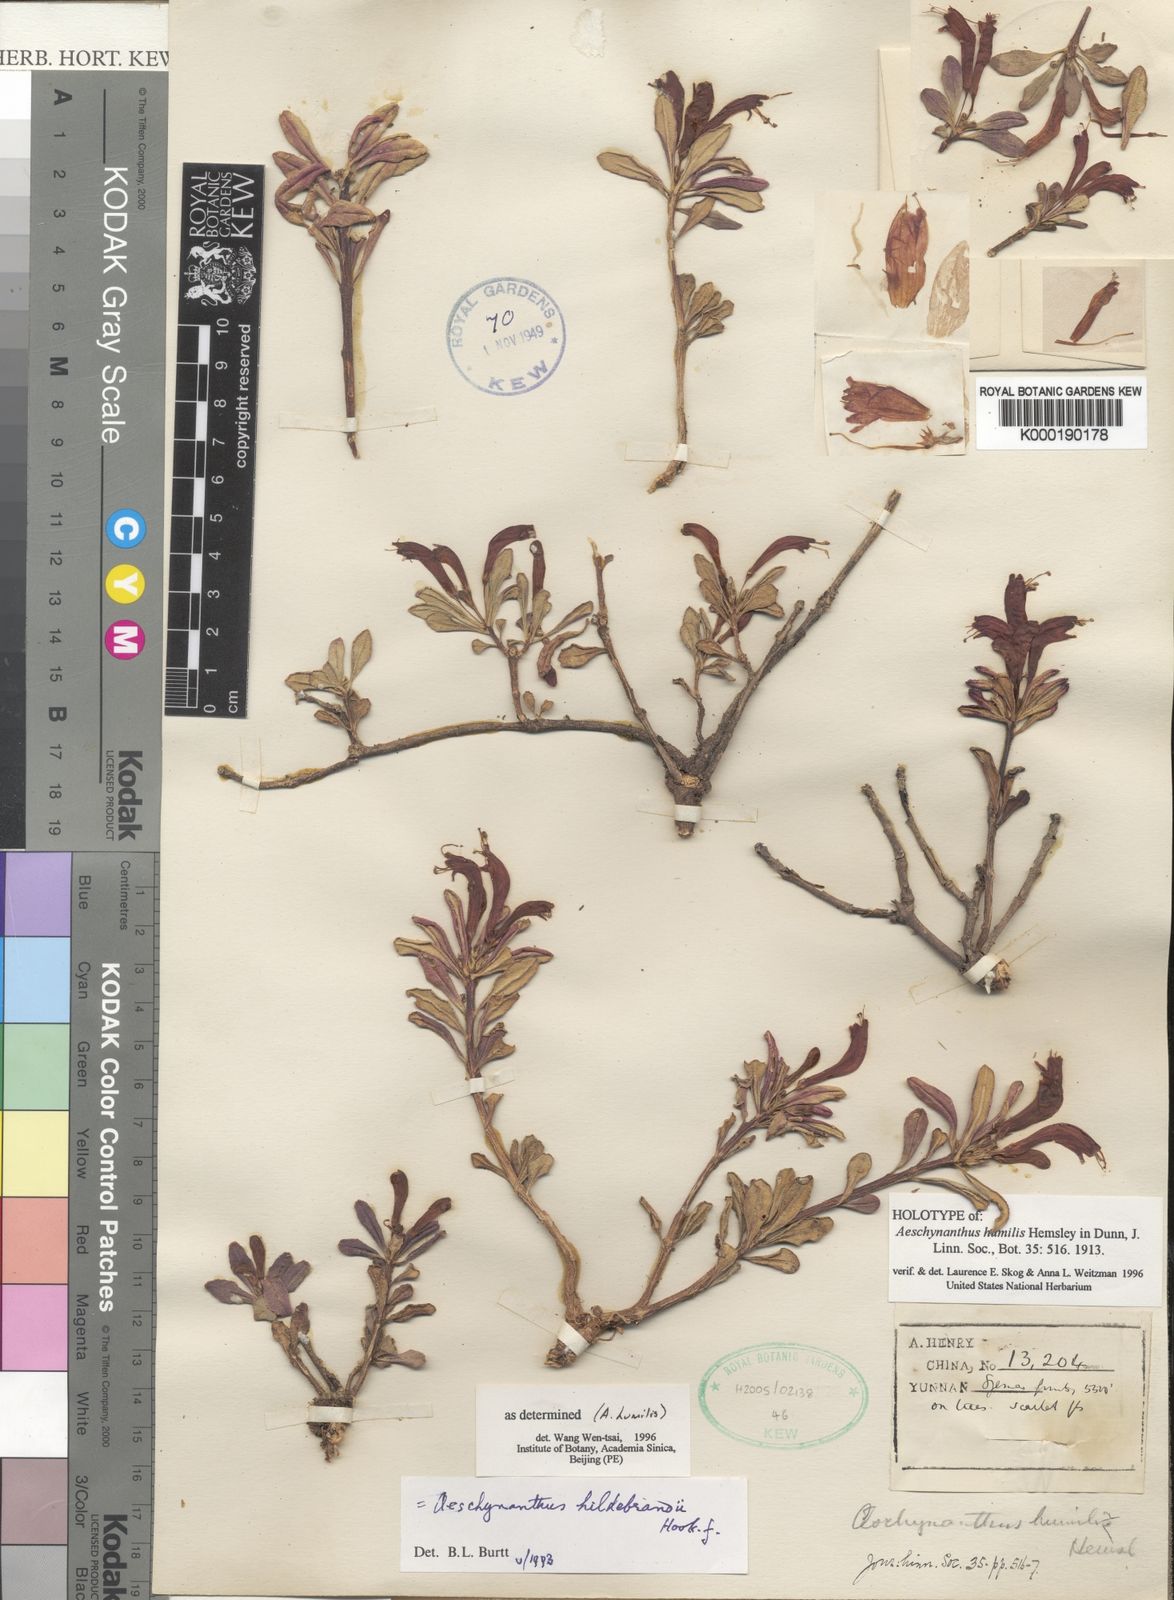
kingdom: Plantae
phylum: Tracheophyta
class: Magnoliopsida
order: Lamiales
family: Gesneriaceae
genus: Aeschynanthus
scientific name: Aeschynanthus humilis
